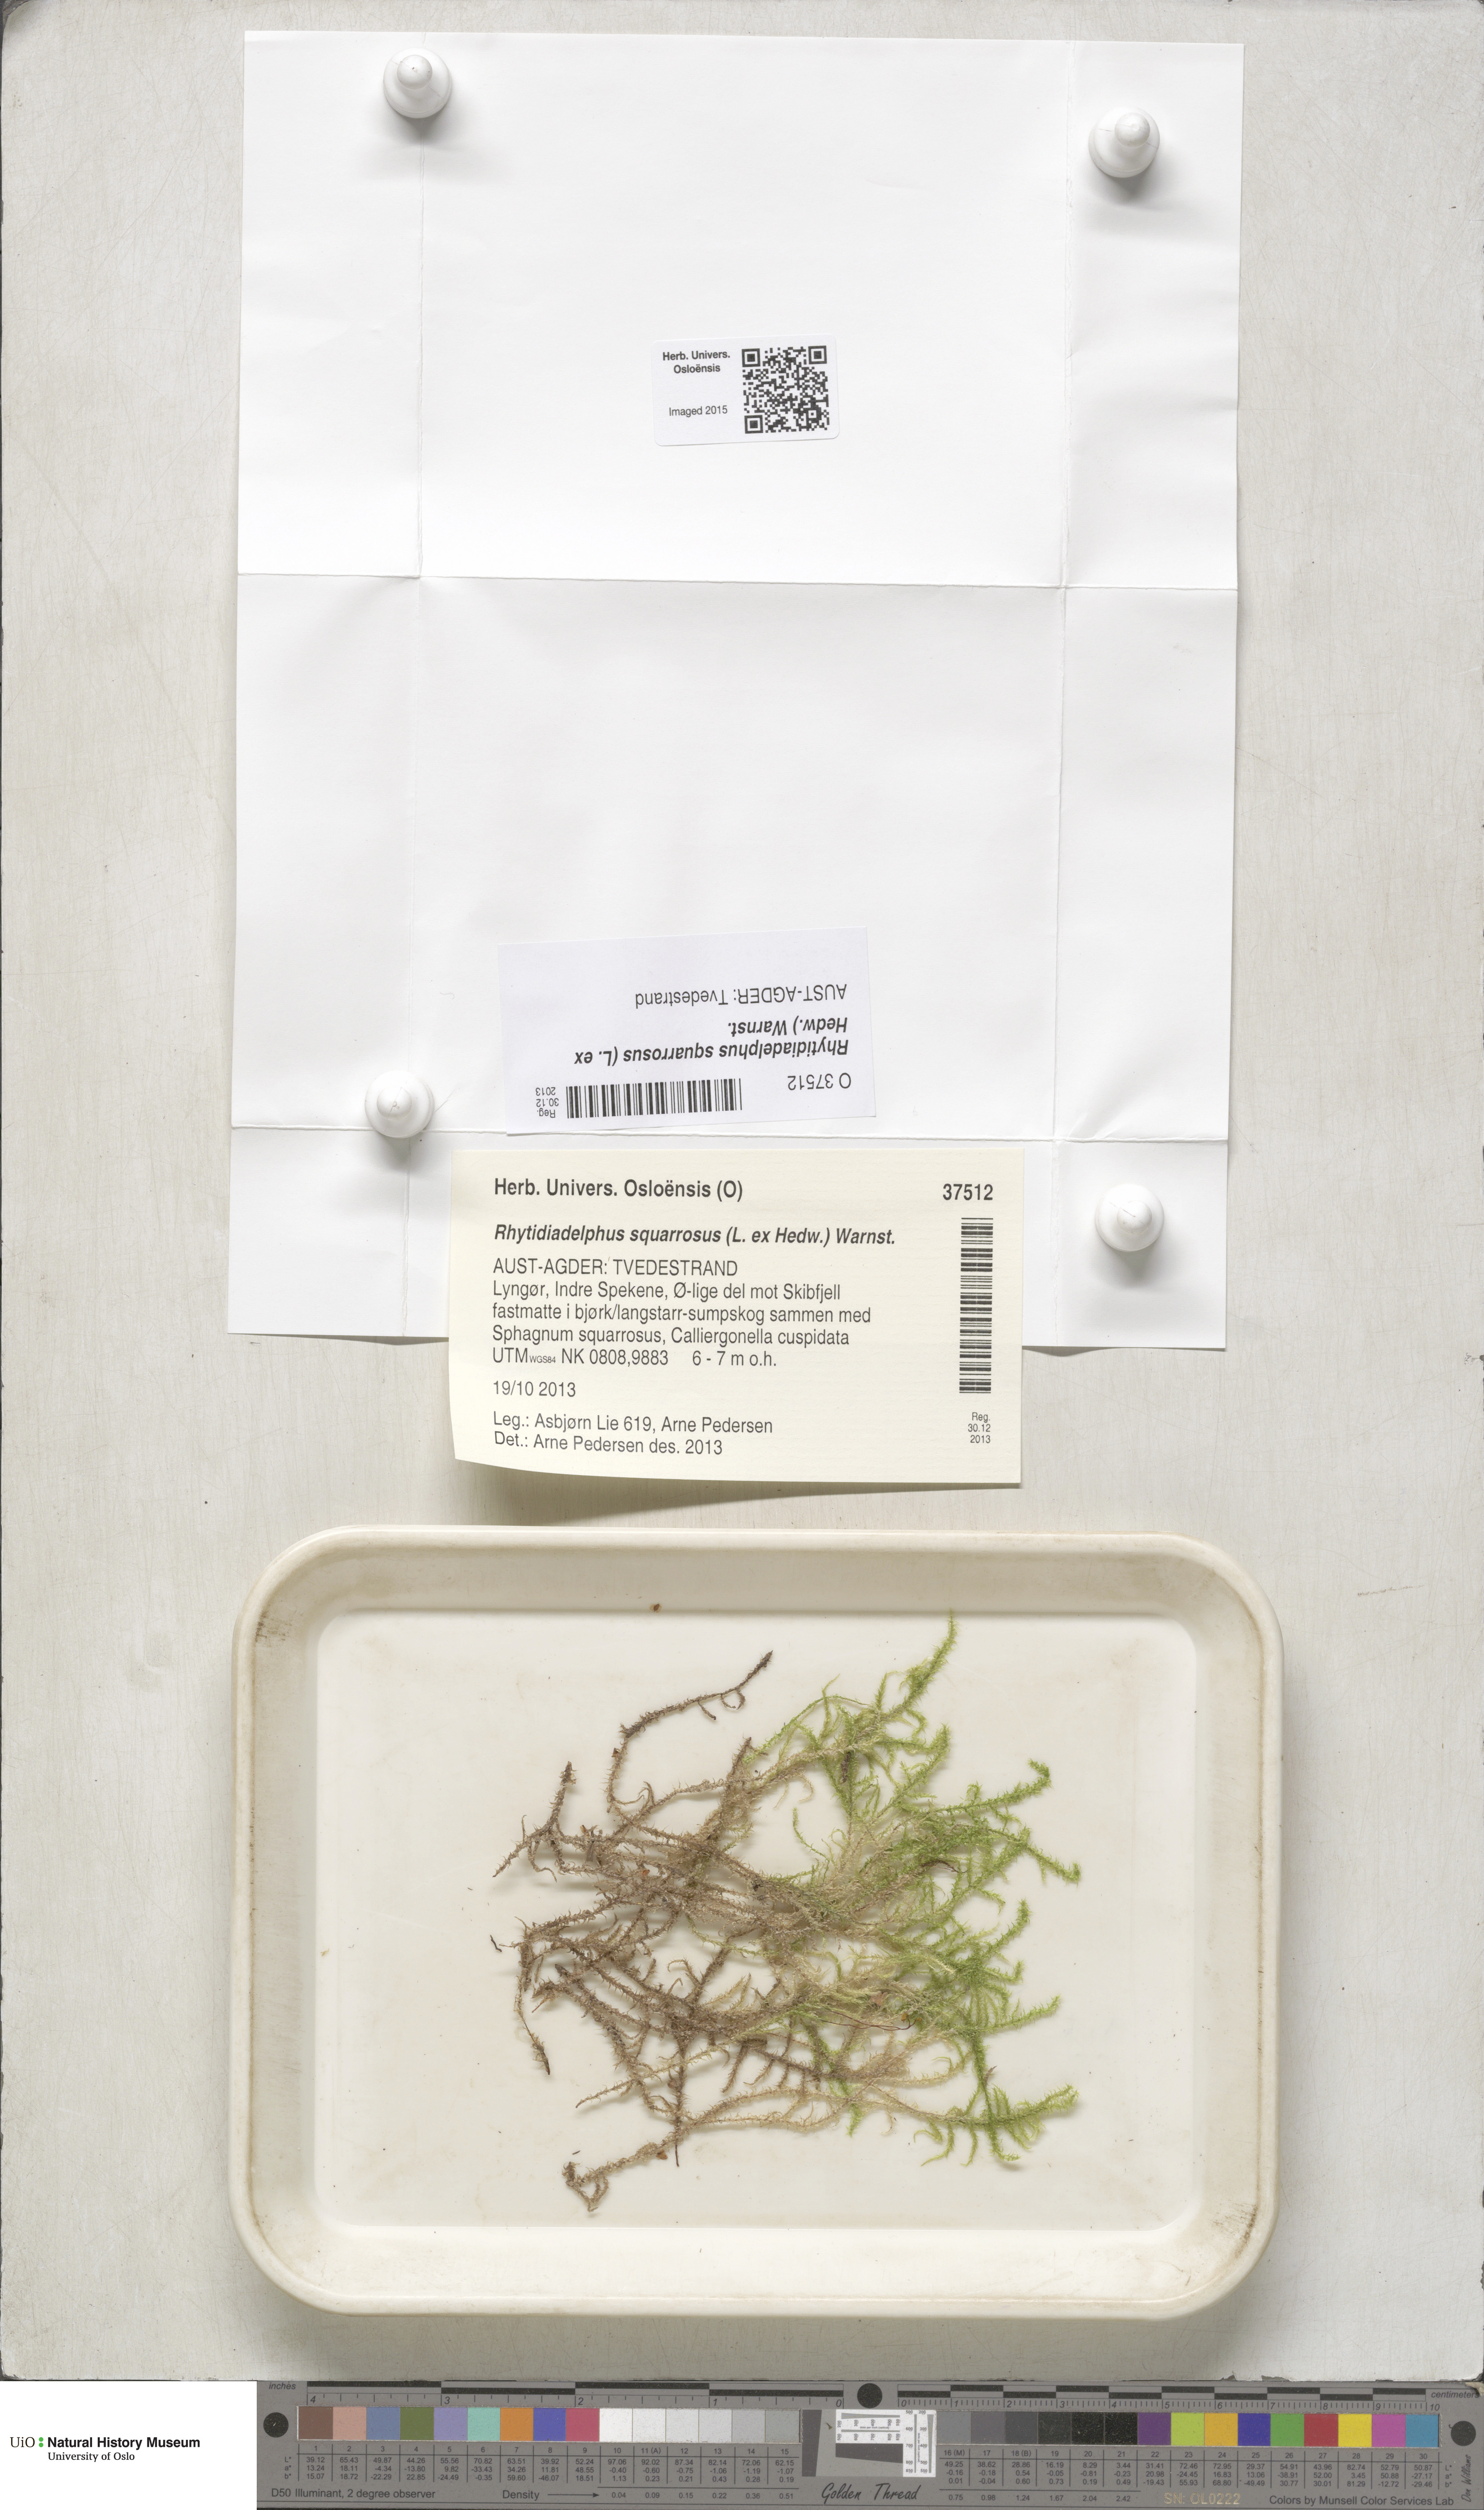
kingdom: Plantae
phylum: Bryophyta
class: Bryopsida
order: Hypnales
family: Hylocomiaceae
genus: Rhytidiadelphus
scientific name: Rhytidiadelphus squarrosus
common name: Springy turf-moss
